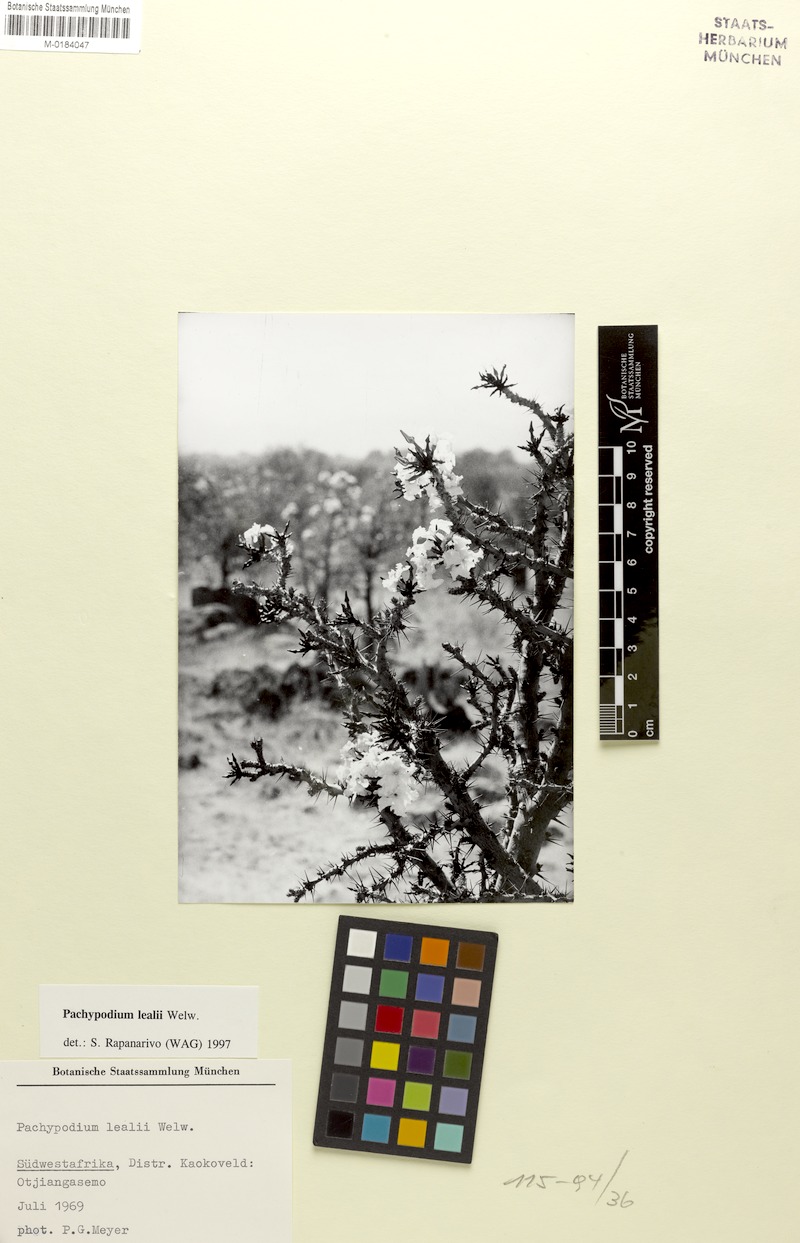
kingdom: Plantae
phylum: Tracheophyta
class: Magnoliopsida
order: Gentianales
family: Apocynaceae
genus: Pachypodium
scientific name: Pachypodium lealii
